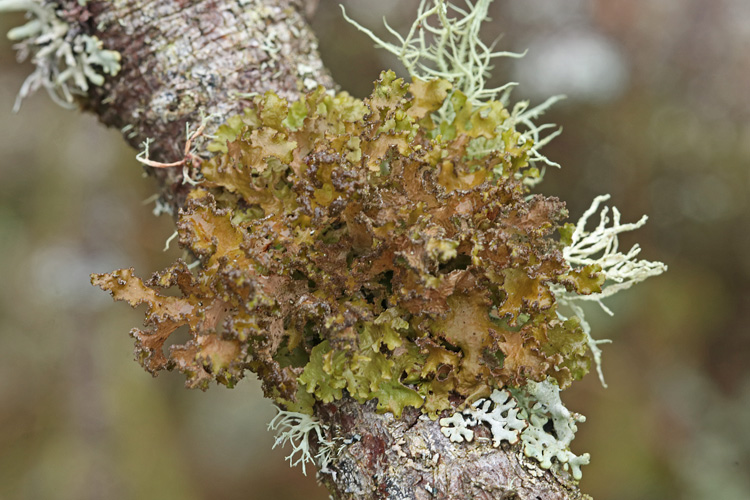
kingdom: Fungi
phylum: Ascomycota
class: Lecanoromycetes
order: Lecanorales
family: Parmeliaceae
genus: Nephromopsis
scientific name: Nephromopsis chlorophylla
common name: olivenbrun kruslav
